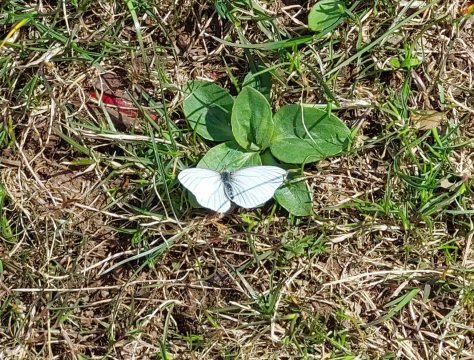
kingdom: Animalia
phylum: Arthropoda
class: Insecta
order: Lepidoptera
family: Pieridae
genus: Pieris
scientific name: Pieris oleracea
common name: Mustard White
